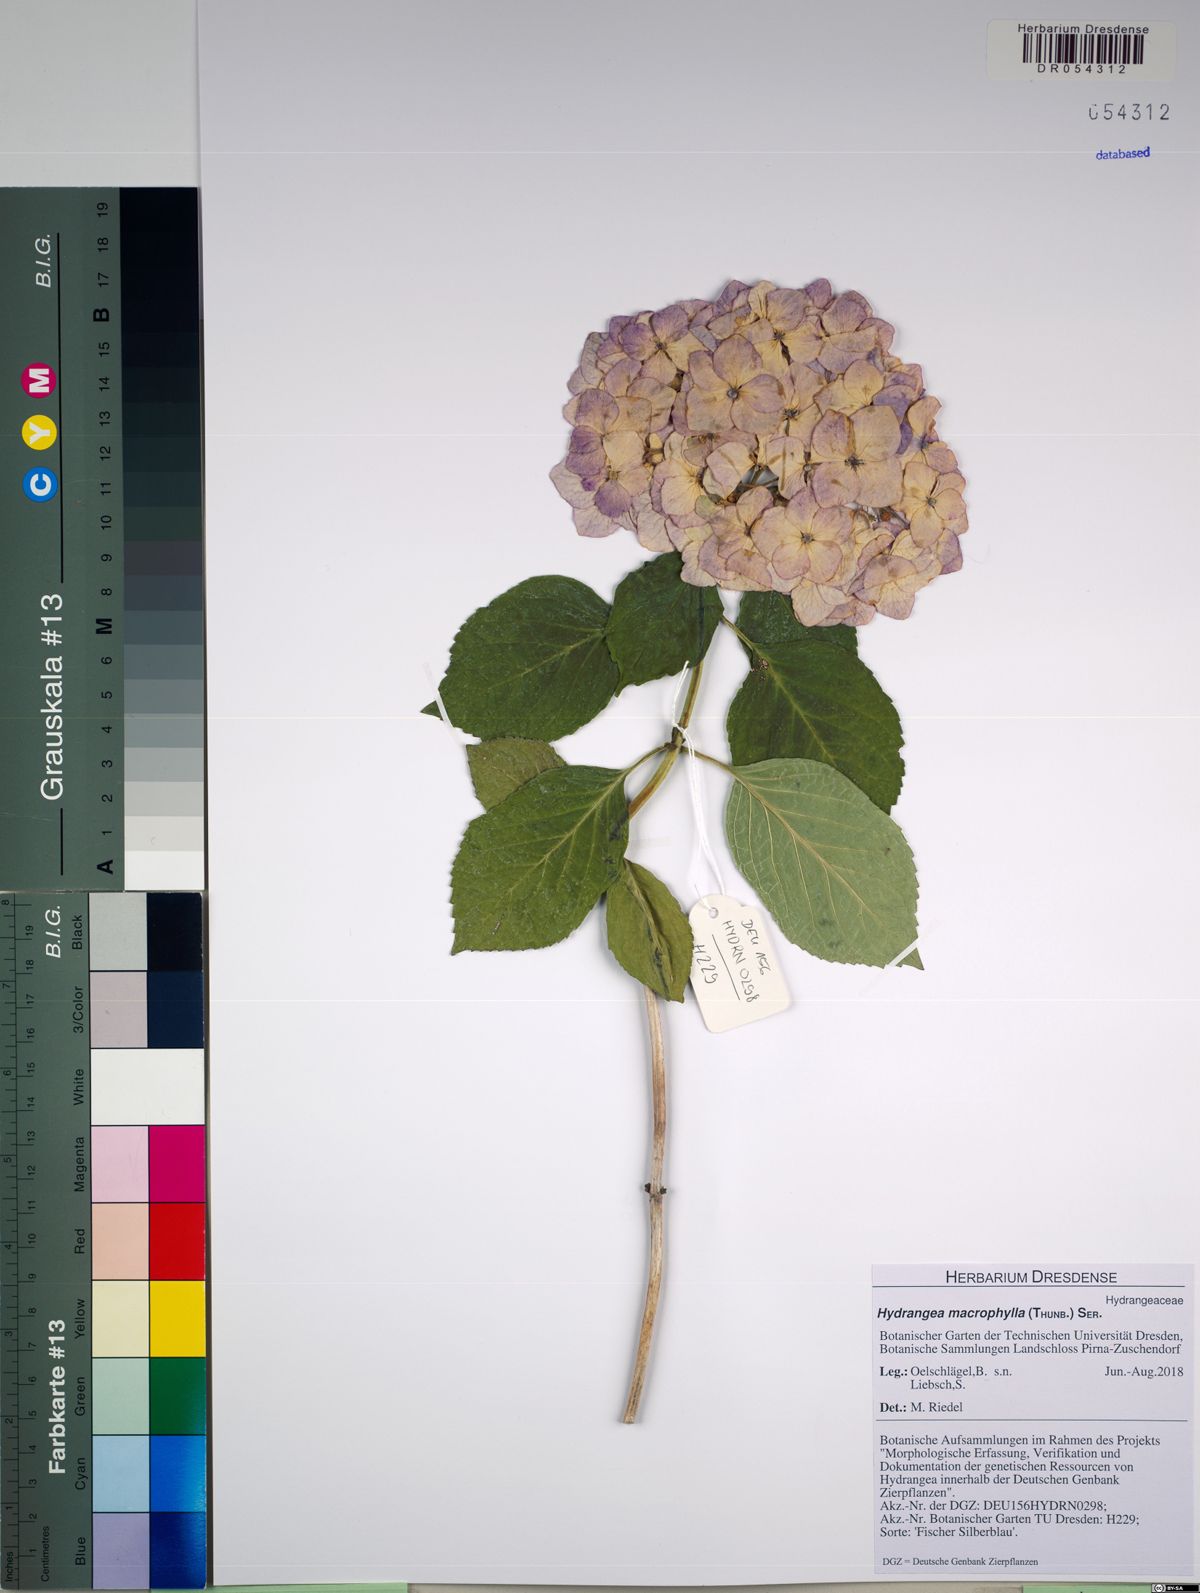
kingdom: Plantae
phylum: Tracheophyta
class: Magnoliopsida
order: Cornales
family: Hydrangeaceae
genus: Hydrangea
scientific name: Hydrangea macrophylla
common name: Hydrangea
